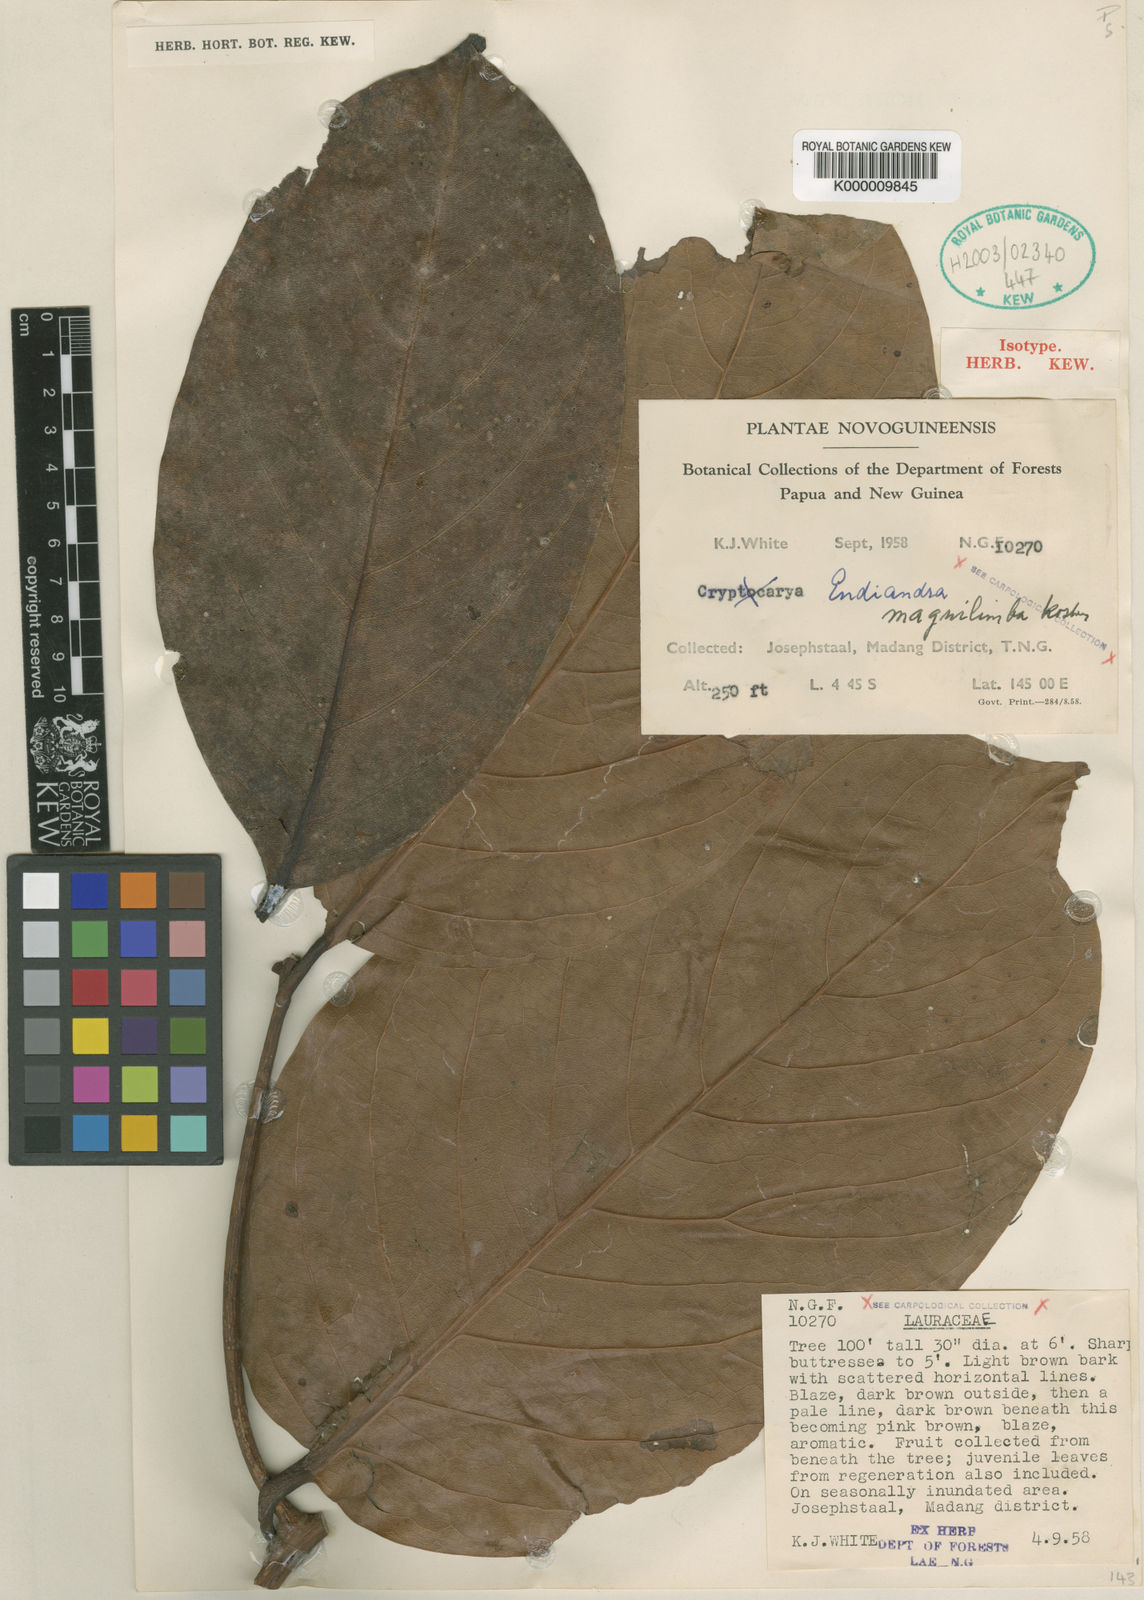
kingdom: Plantae
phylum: Tracheophyta
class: Magnoliopsida
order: Laurales
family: Lauraceae
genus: Endiandra
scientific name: Endiandra magnilimba
